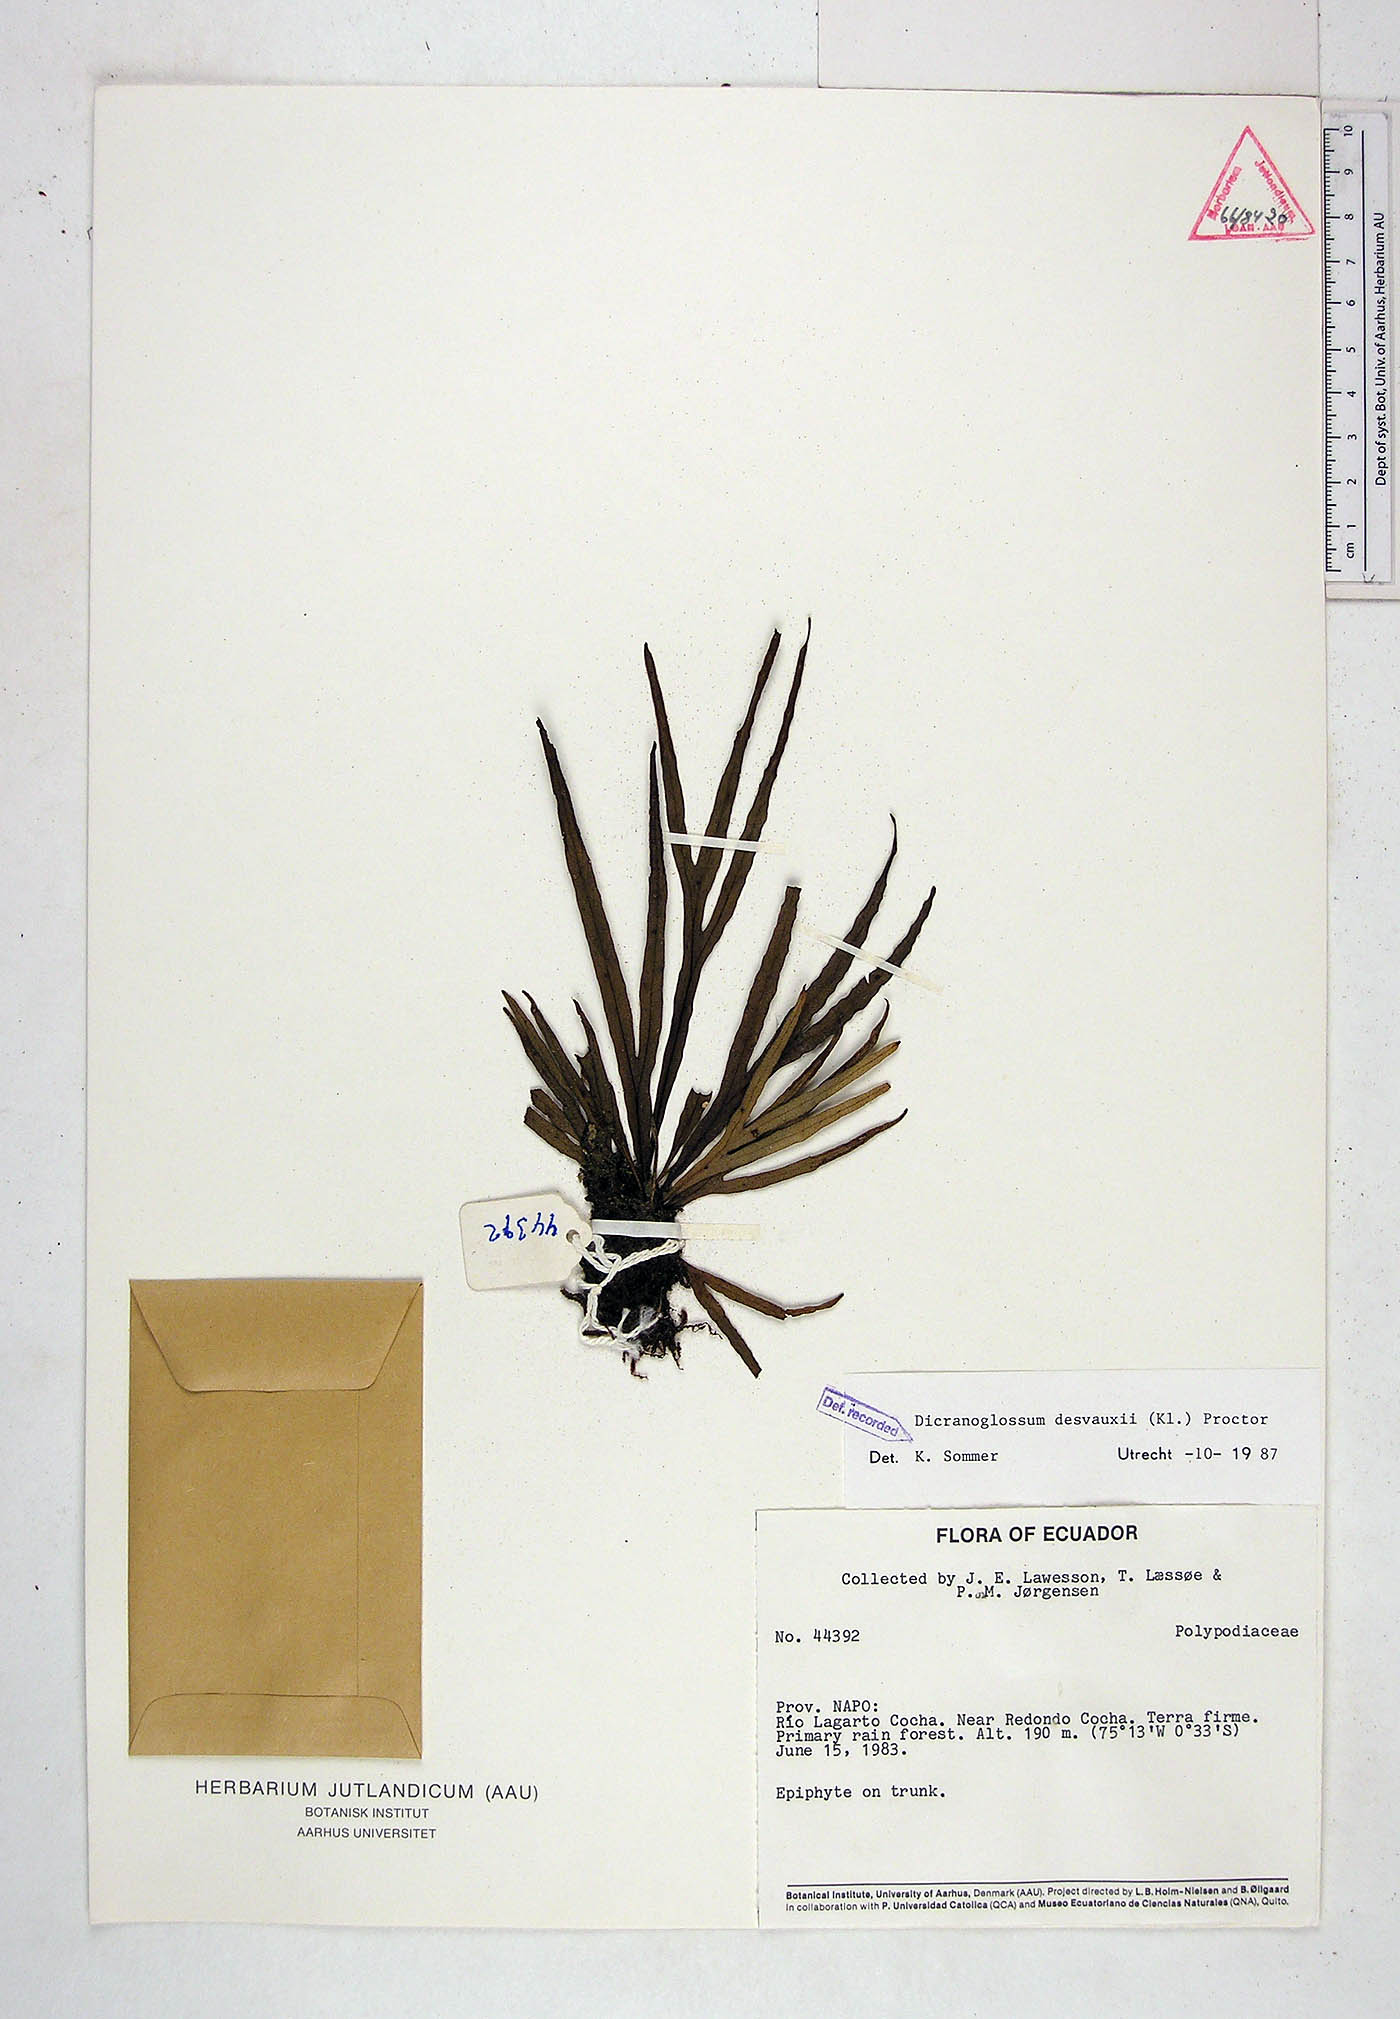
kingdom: Plantae
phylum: Tracheophyta
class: Polypodiopsida
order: Polypodiales
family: Polypodiaceae
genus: Pleopeltis
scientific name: Pleopeltis desvauxii
